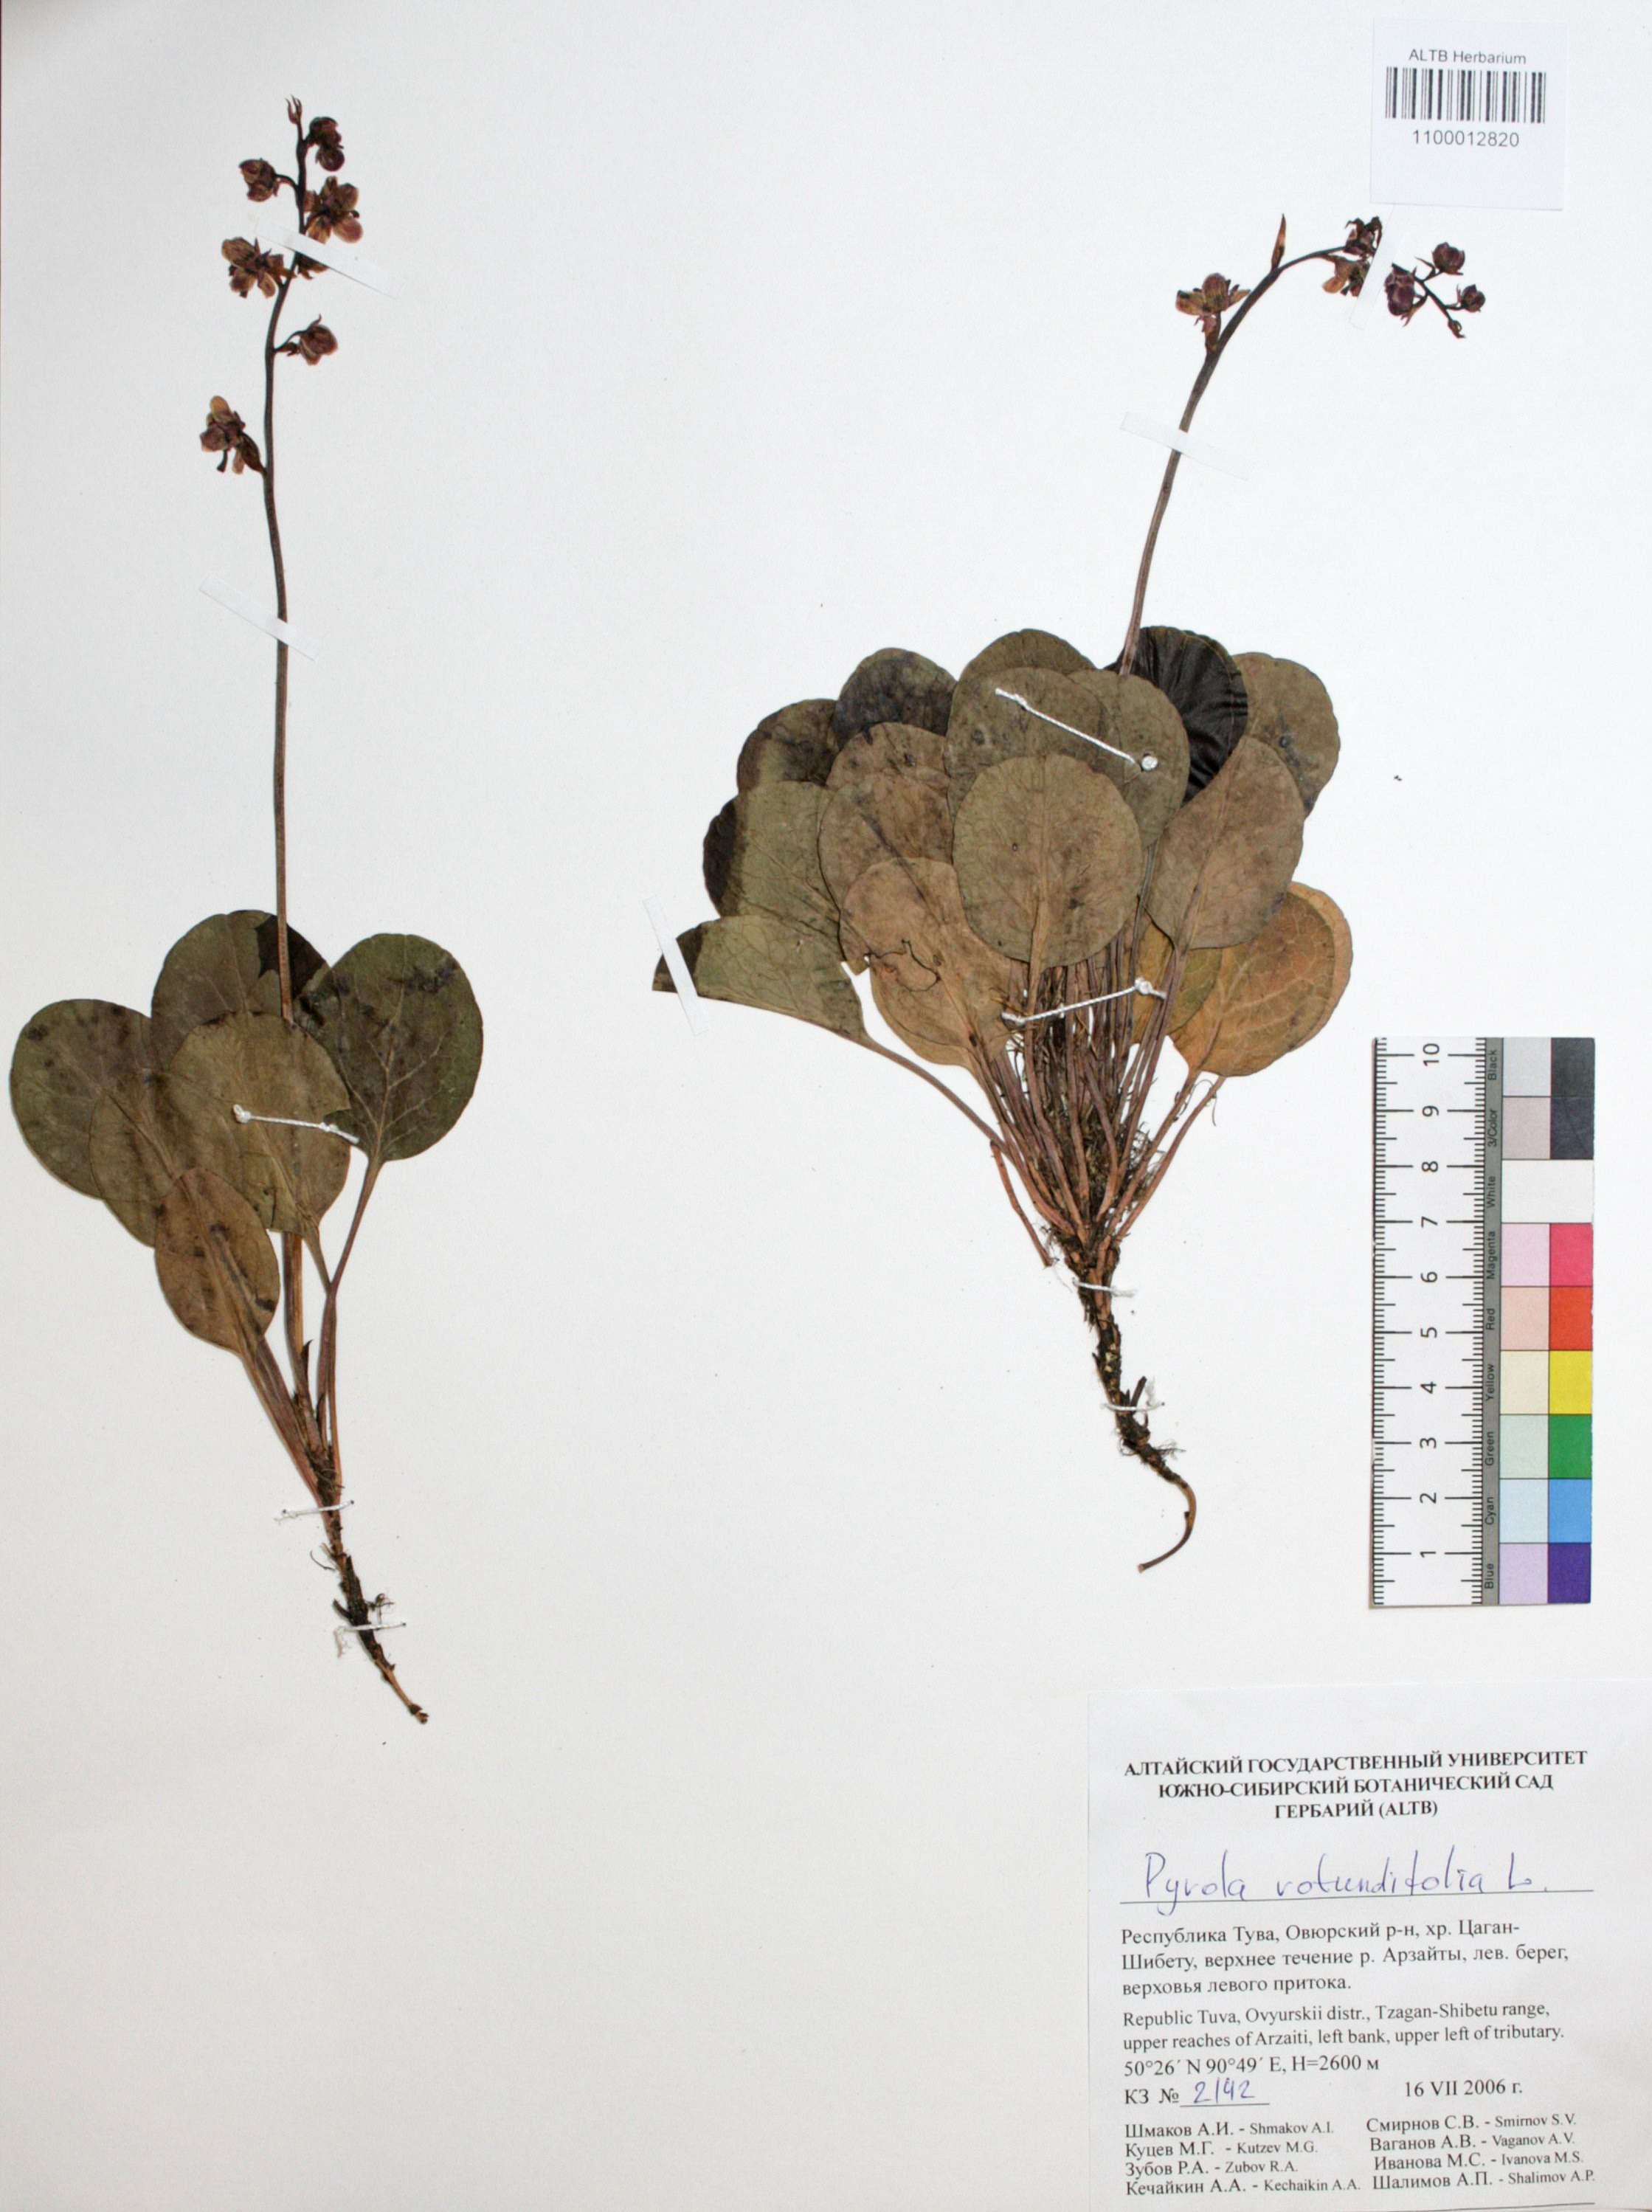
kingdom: Plantae
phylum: Tracheophyta
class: Magnoliopsida
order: Ericales
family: Ericaceae
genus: Pyrola
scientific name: Pyrola rotundifolia
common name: Round-leaved wintergreen
